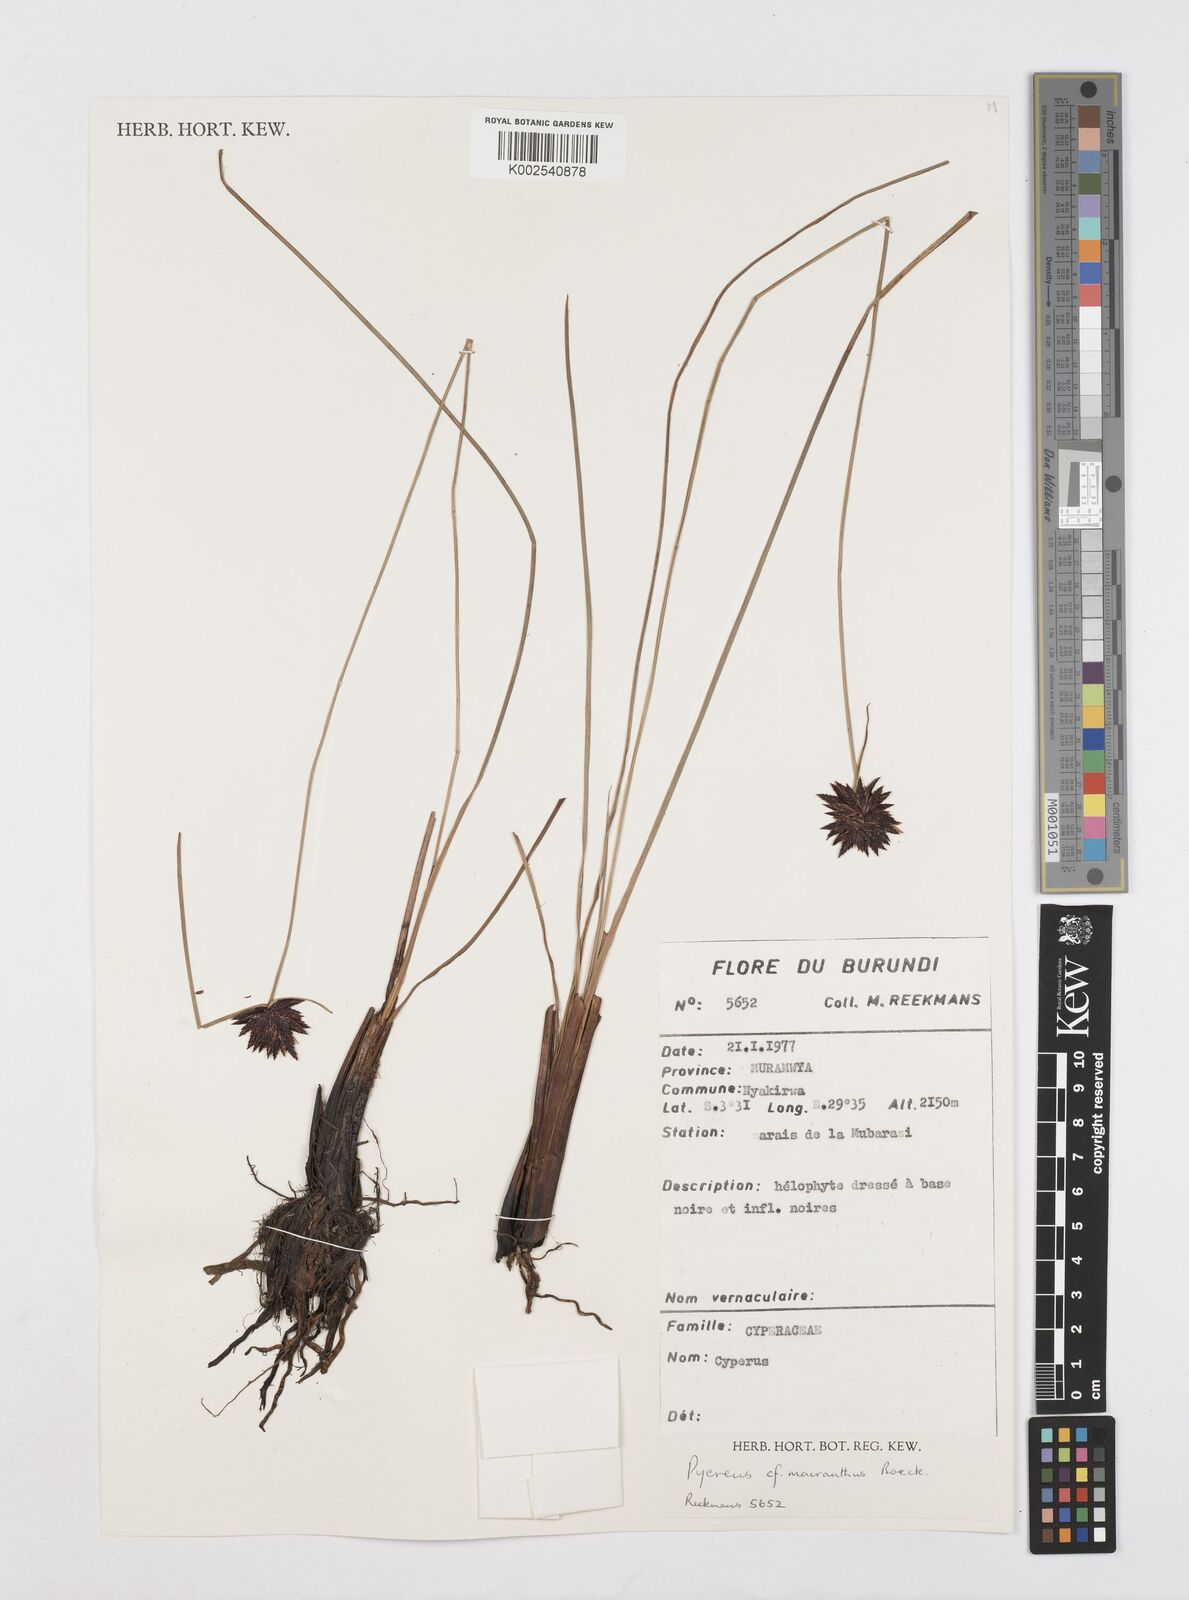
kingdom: Plantae
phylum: Tracheophyta
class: Liliopsida
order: Poales
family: Cyperaceae
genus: Cyperus
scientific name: Cyperus nigricans
